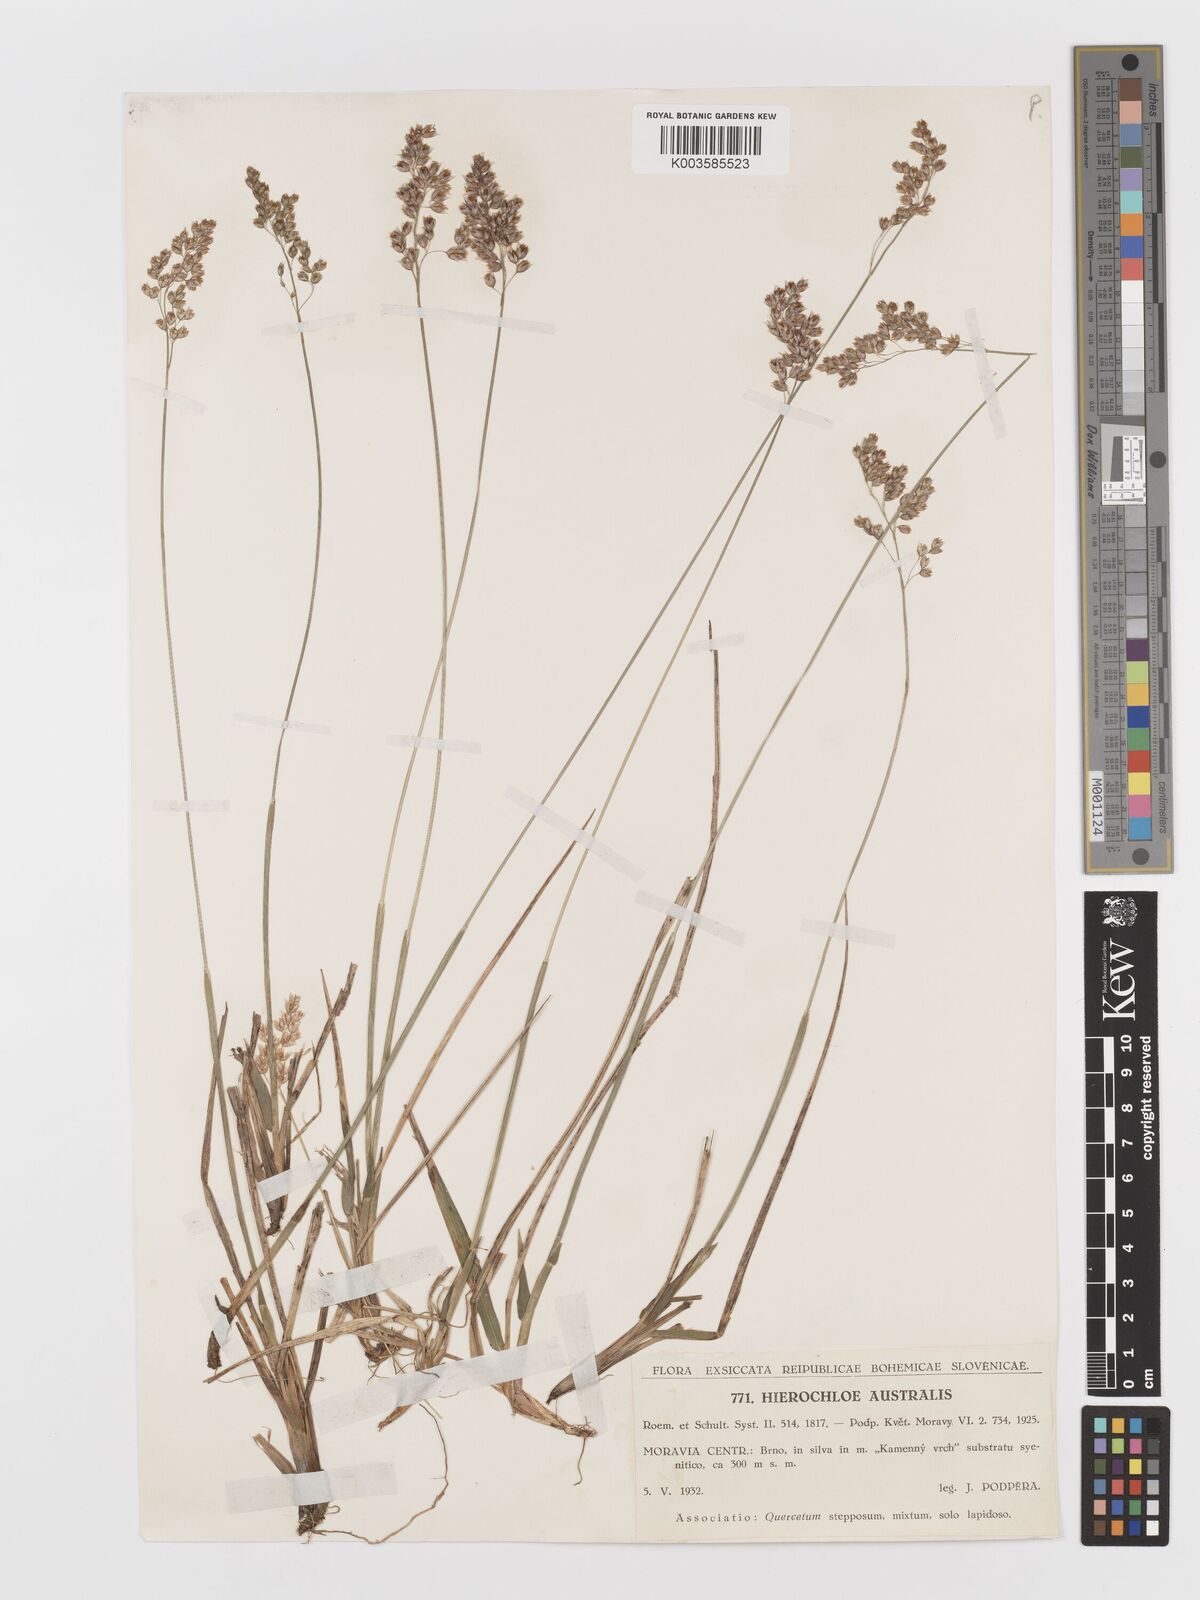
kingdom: Plantae
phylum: Tracheophyta
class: Liliopsida
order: Poales
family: Poaceae
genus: Anthoxanthum
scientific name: Anthoxanthum australe
